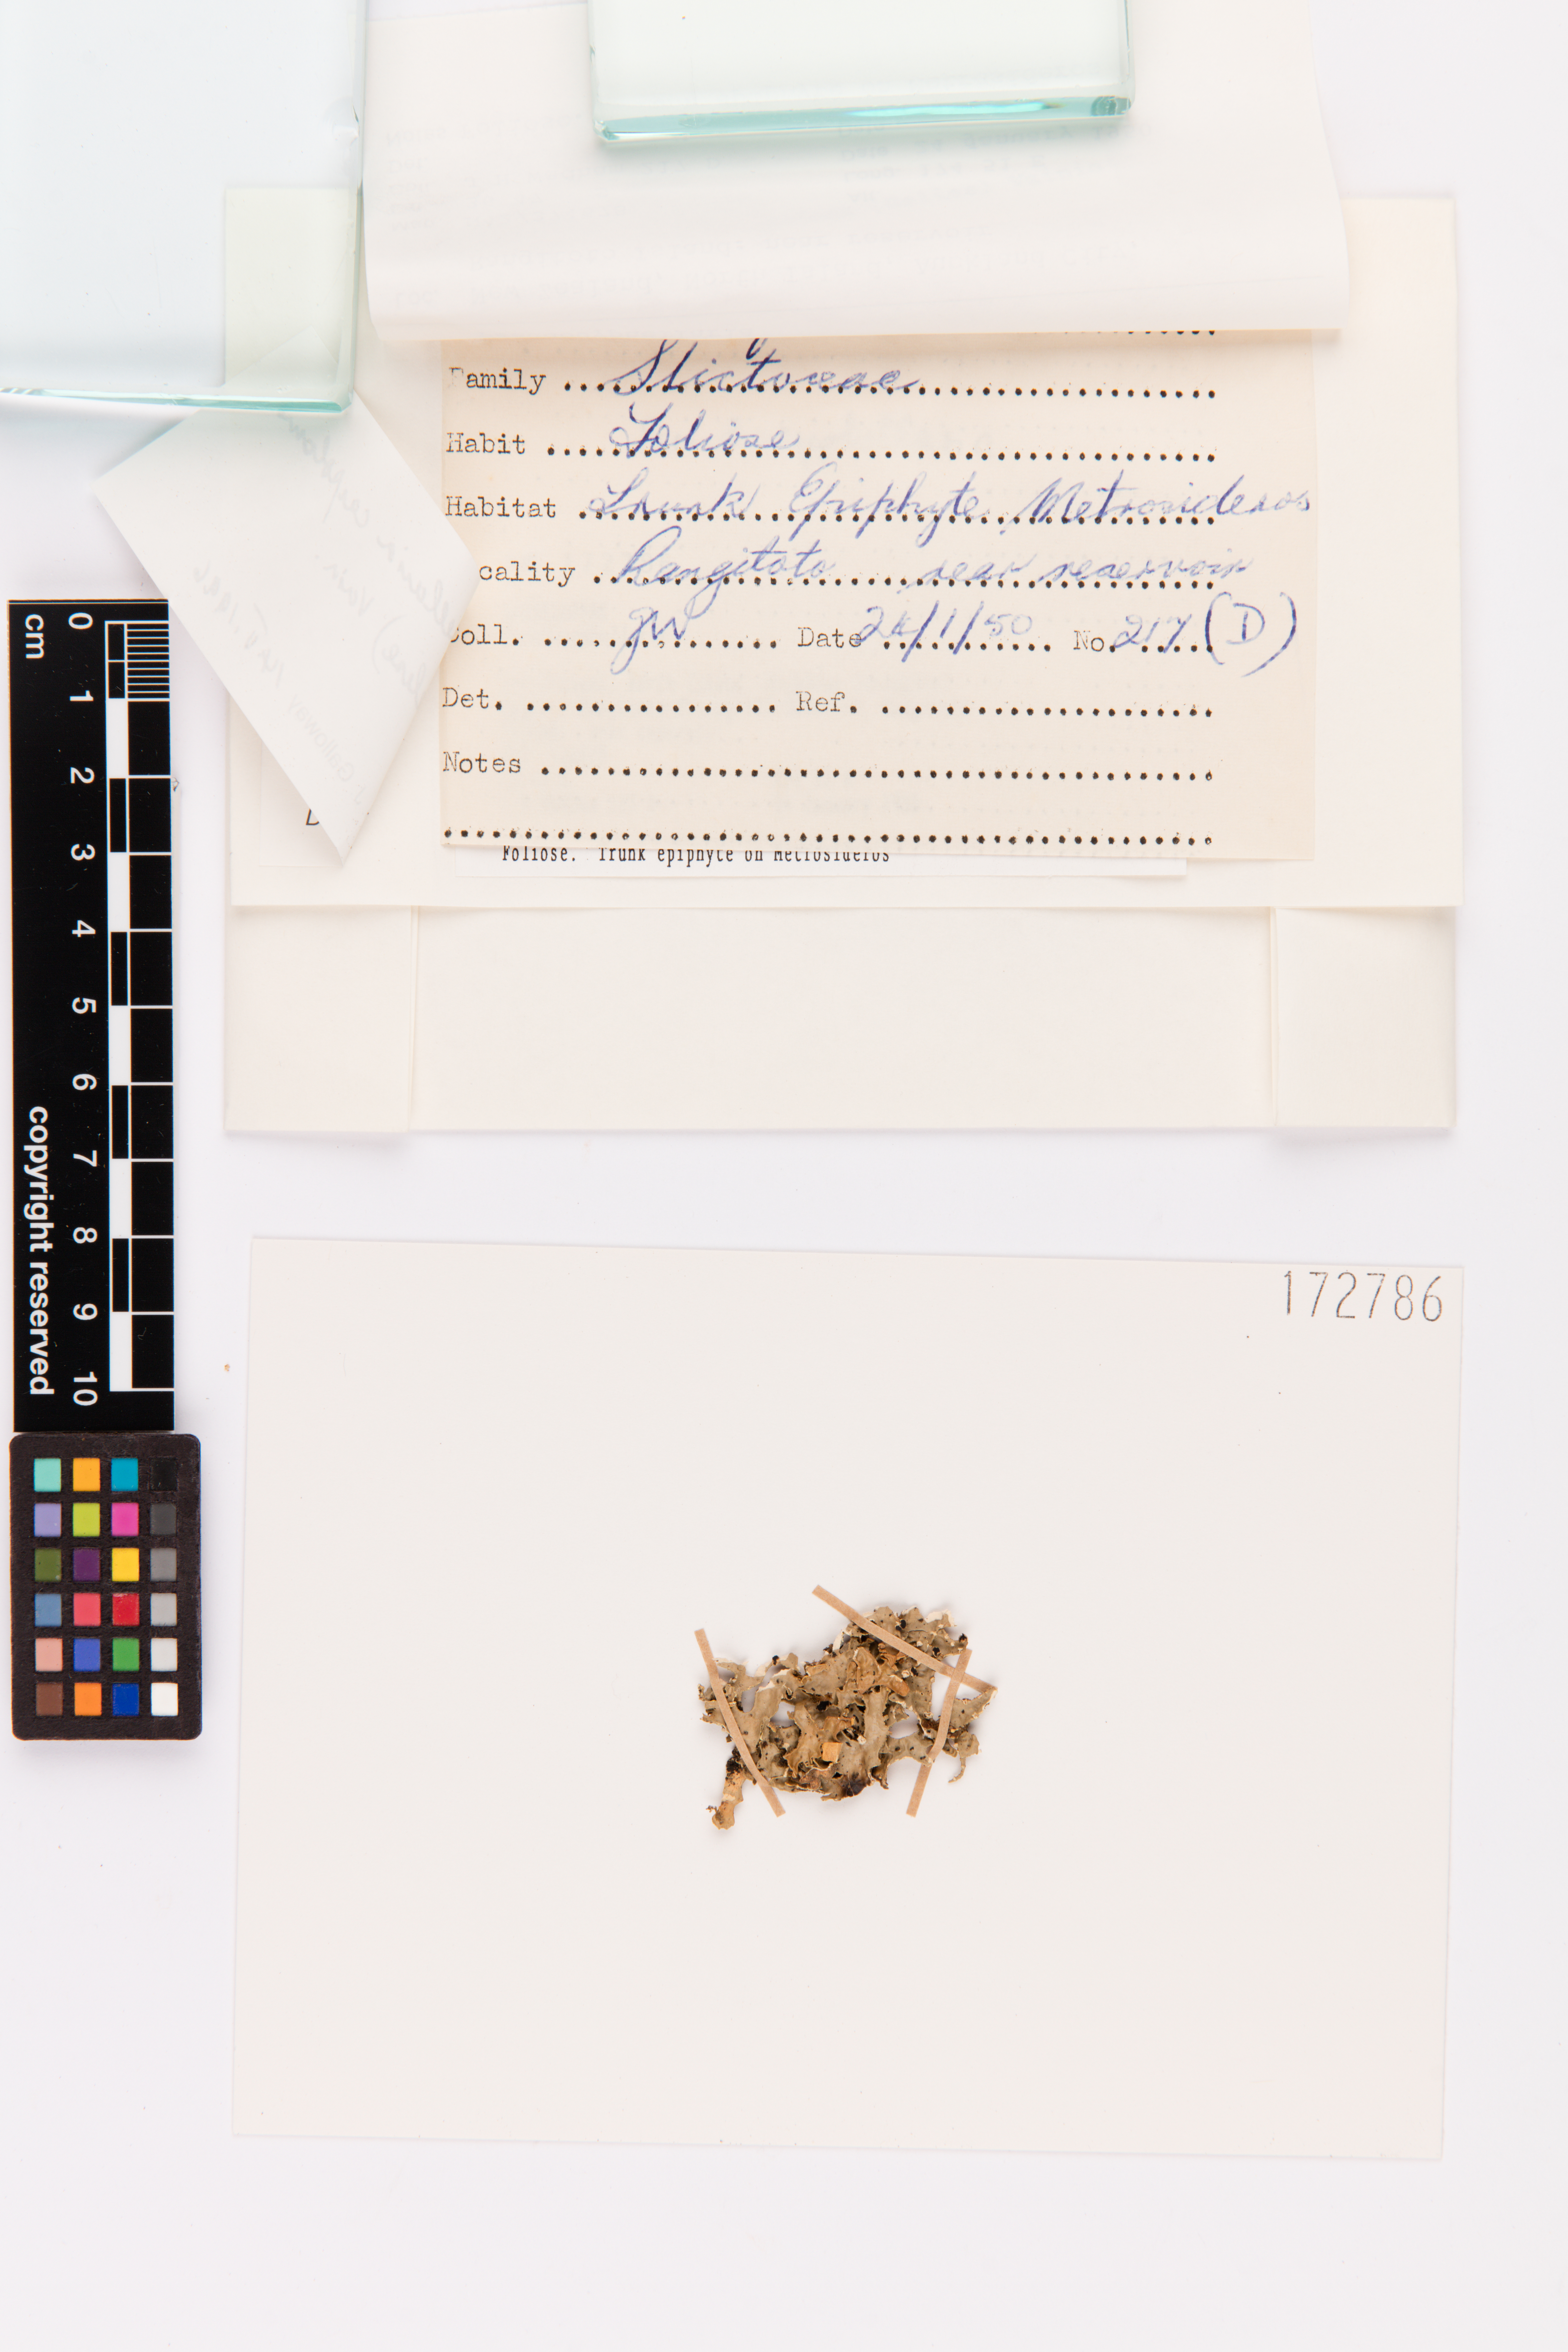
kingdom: Fungi
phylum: Ascomycota
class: Lecanoromycetes
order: Peltigerales
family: Lobariaceae
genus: Pseudocyphellaria
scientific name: Pseudocyphellaria carpoloma
